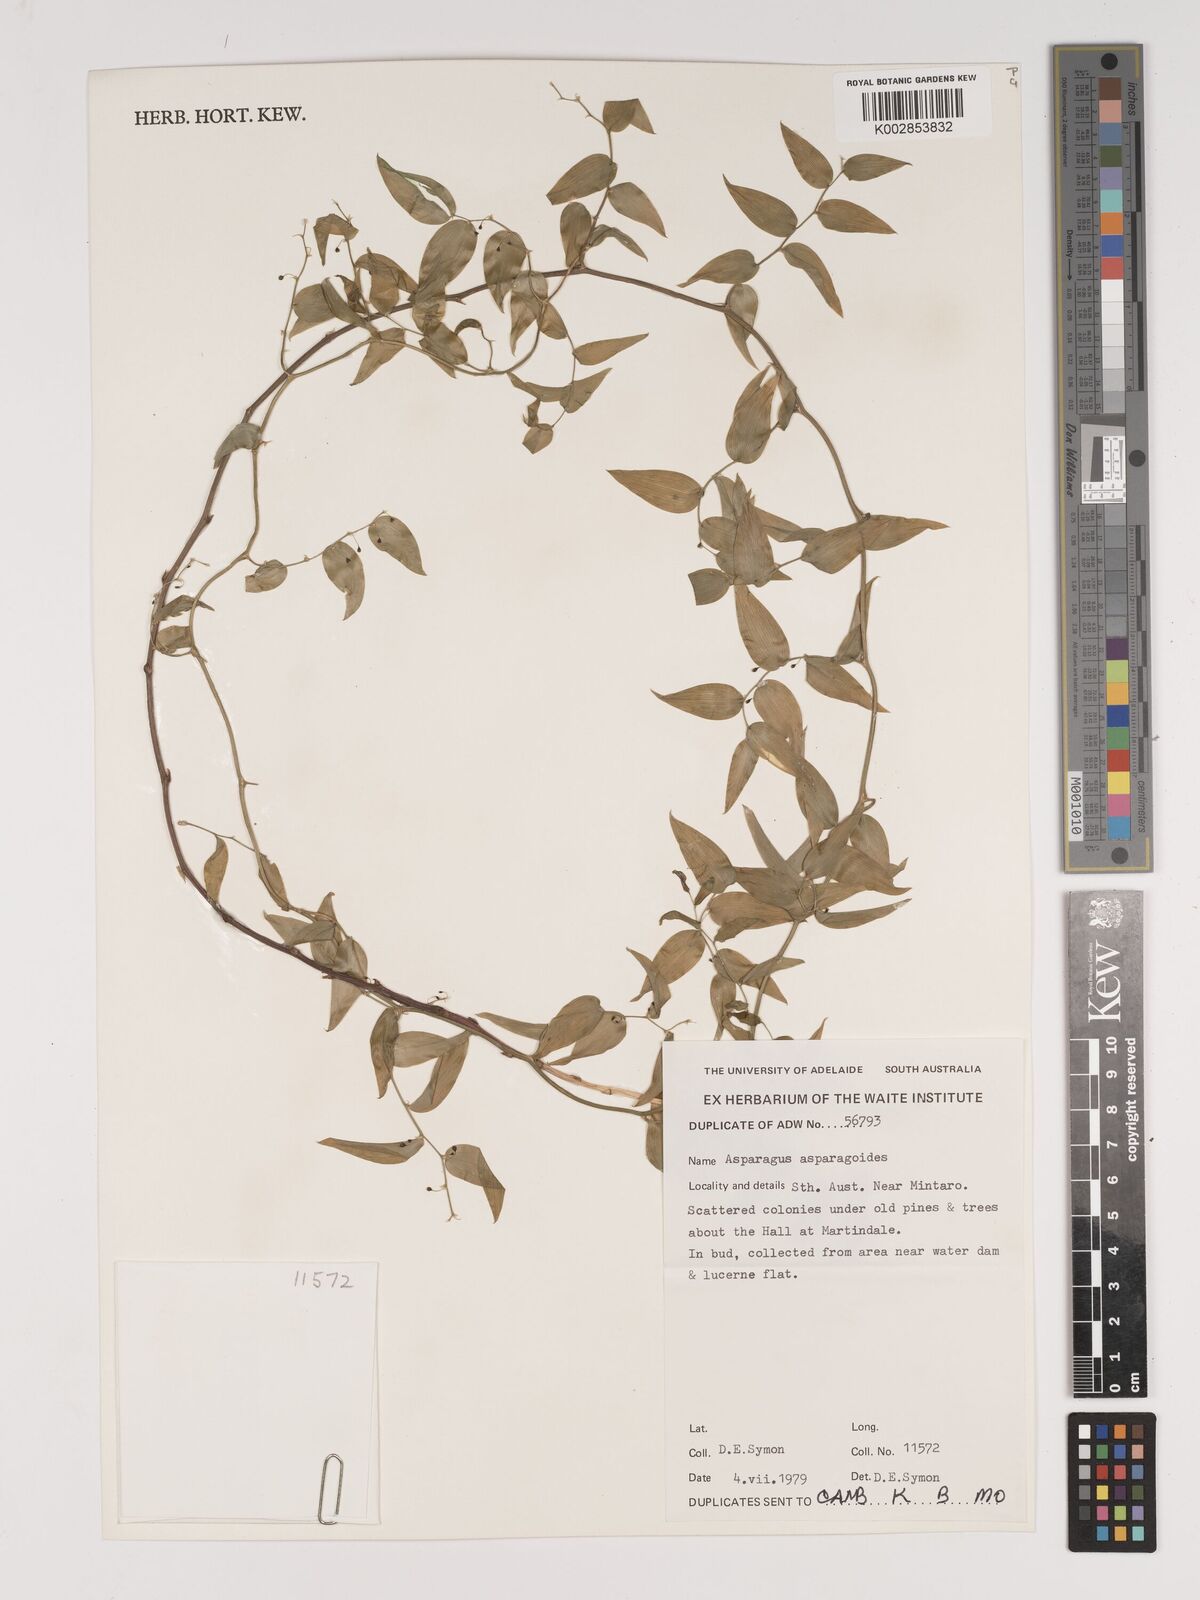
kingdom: Plantae
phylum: Tracheophyta
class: Liliopsida
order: Asparagales
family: Asparagaceae
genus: Asparagus
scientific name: Asparagus asparagoides
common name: African asparagus fern
